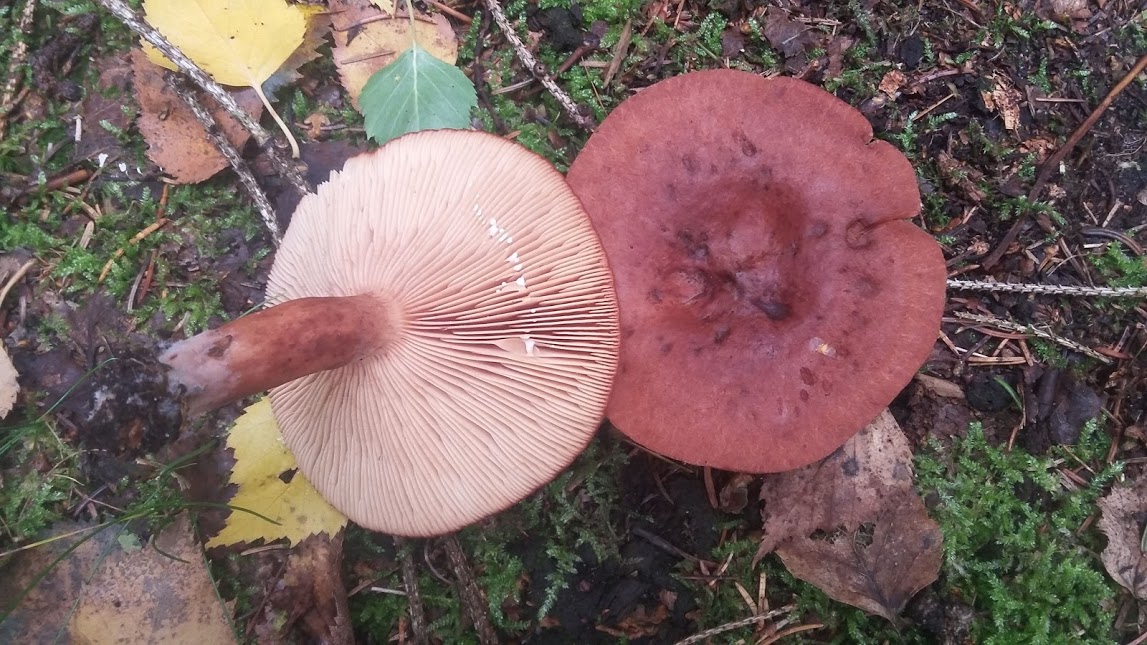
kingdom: Fungi
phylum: Basidiomycota
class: Agaricomycetes
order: Russulales
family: Russulaceae
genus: Lactarius
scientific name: Lactarius rufus
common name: rødbrun mælkehat
